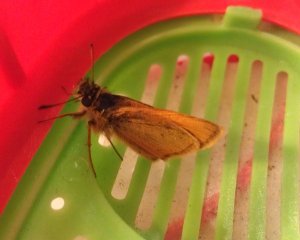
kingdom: Animalia
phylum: Arthropoda
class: Insecta
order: Lepidoptera
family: Hesperiidae
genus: Thymelicus
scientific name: Thymelicus lineola
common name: European Skipper
